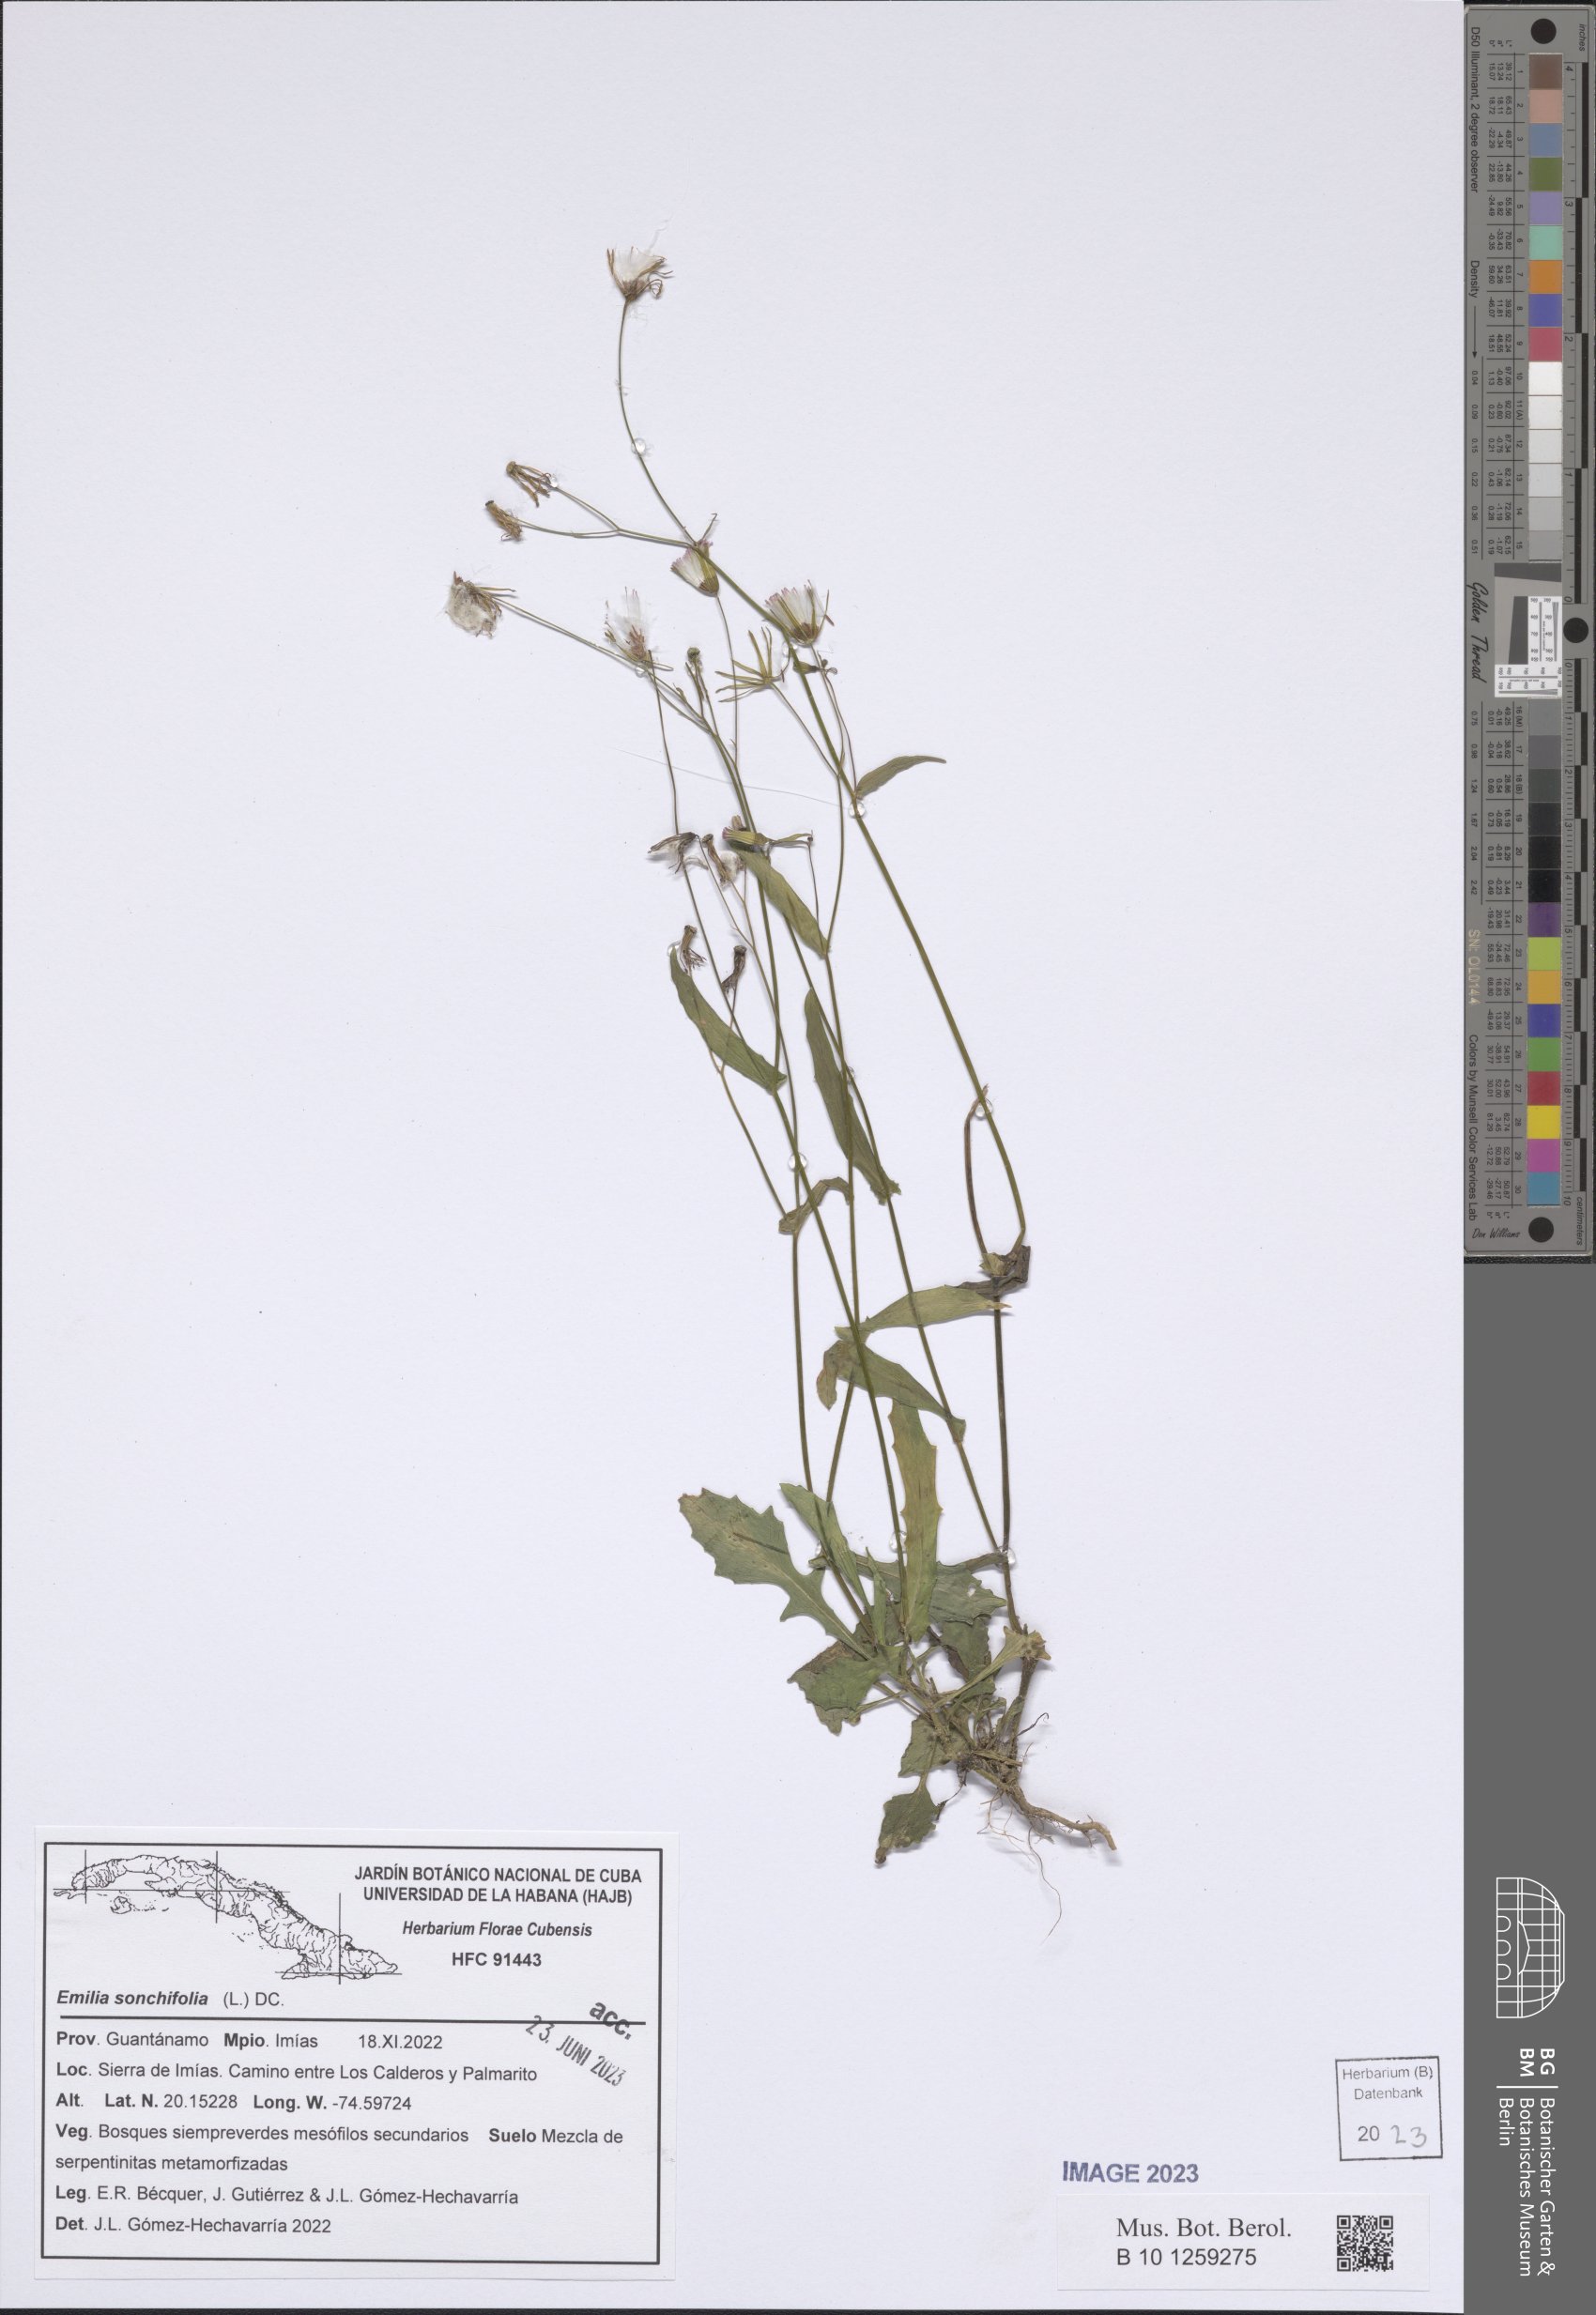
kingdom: Plantae
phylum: Tracheophyta
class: Magnoliopsida
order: Asterales
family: Asteraceae
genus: Emilia
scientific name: Emilia sonchifolia
